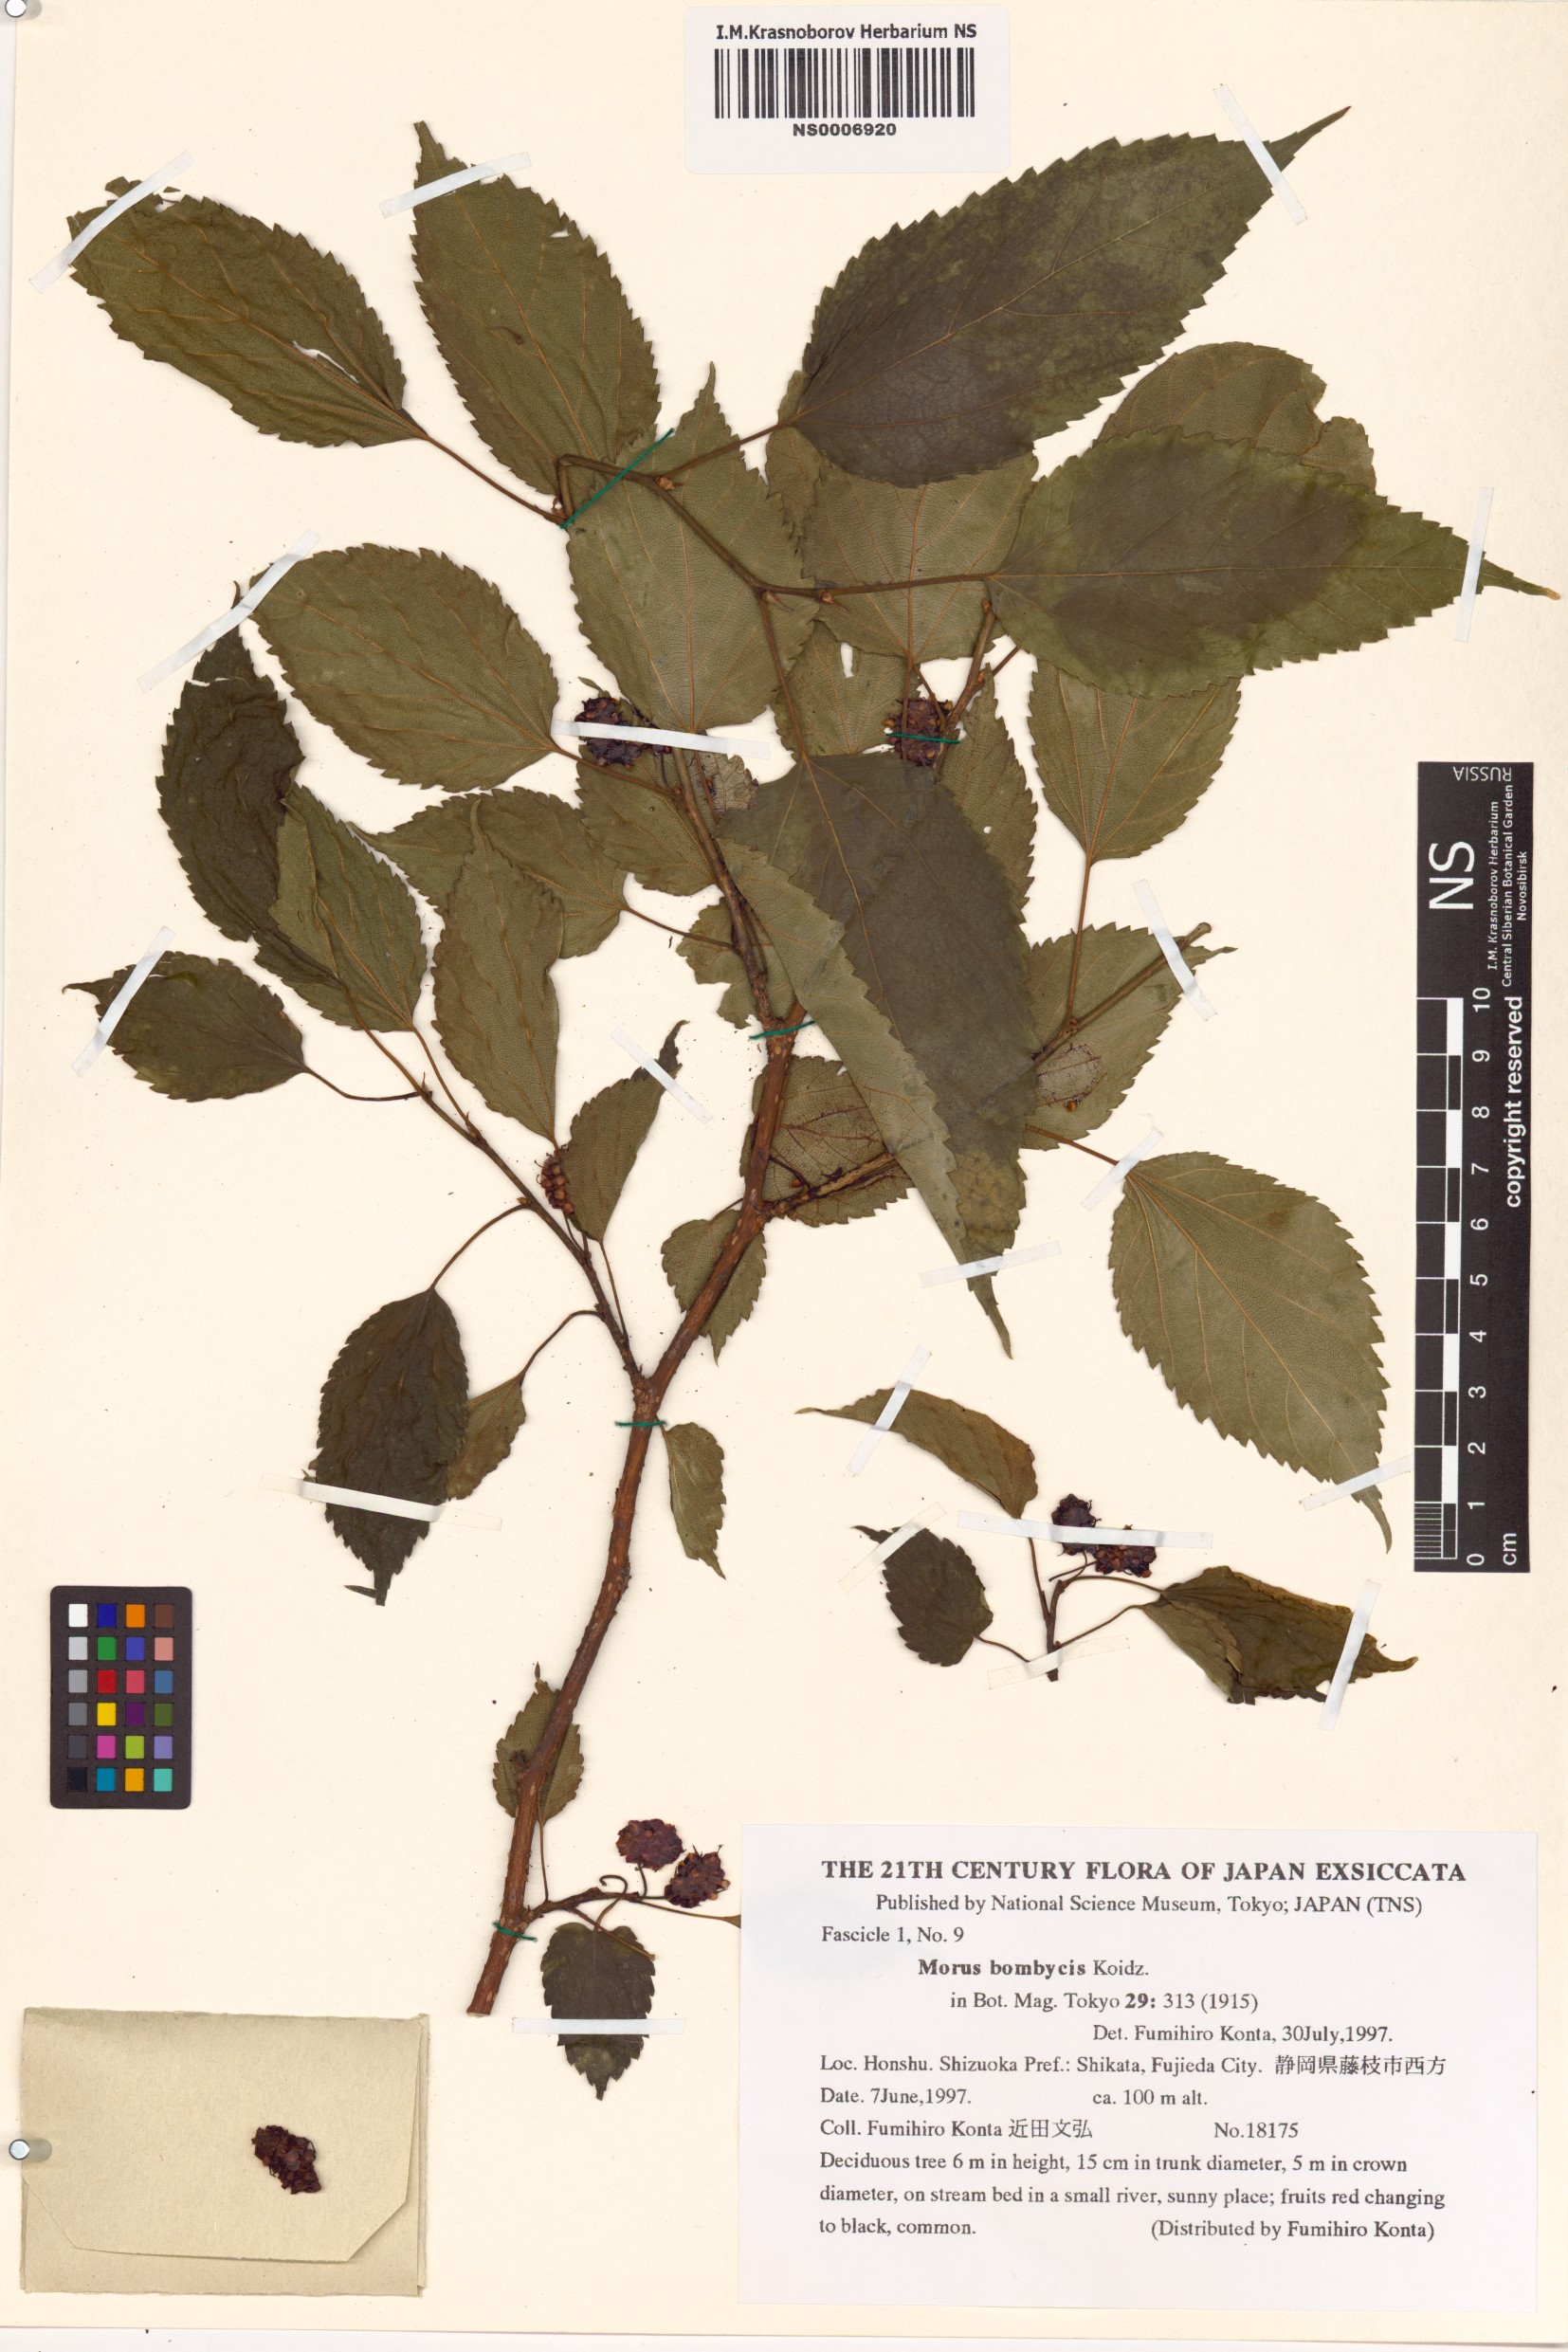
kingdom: Plantae
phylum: Tracheophyta
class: Magnoliopsida
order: Rosales
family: Moraceae
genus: Morus
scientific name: Morus indica
